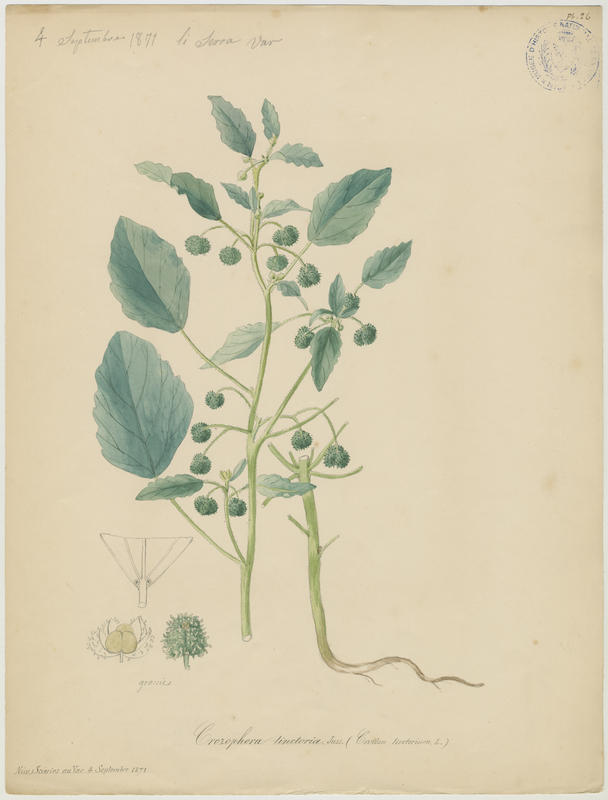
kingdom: Plantae
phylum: Tracheophyta
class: Magnoliopsida
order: Malpighiales
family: Euphorbiaceae
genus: Chrozophora
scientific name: Chrozophora tinctoria
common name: Dyer's litmus
